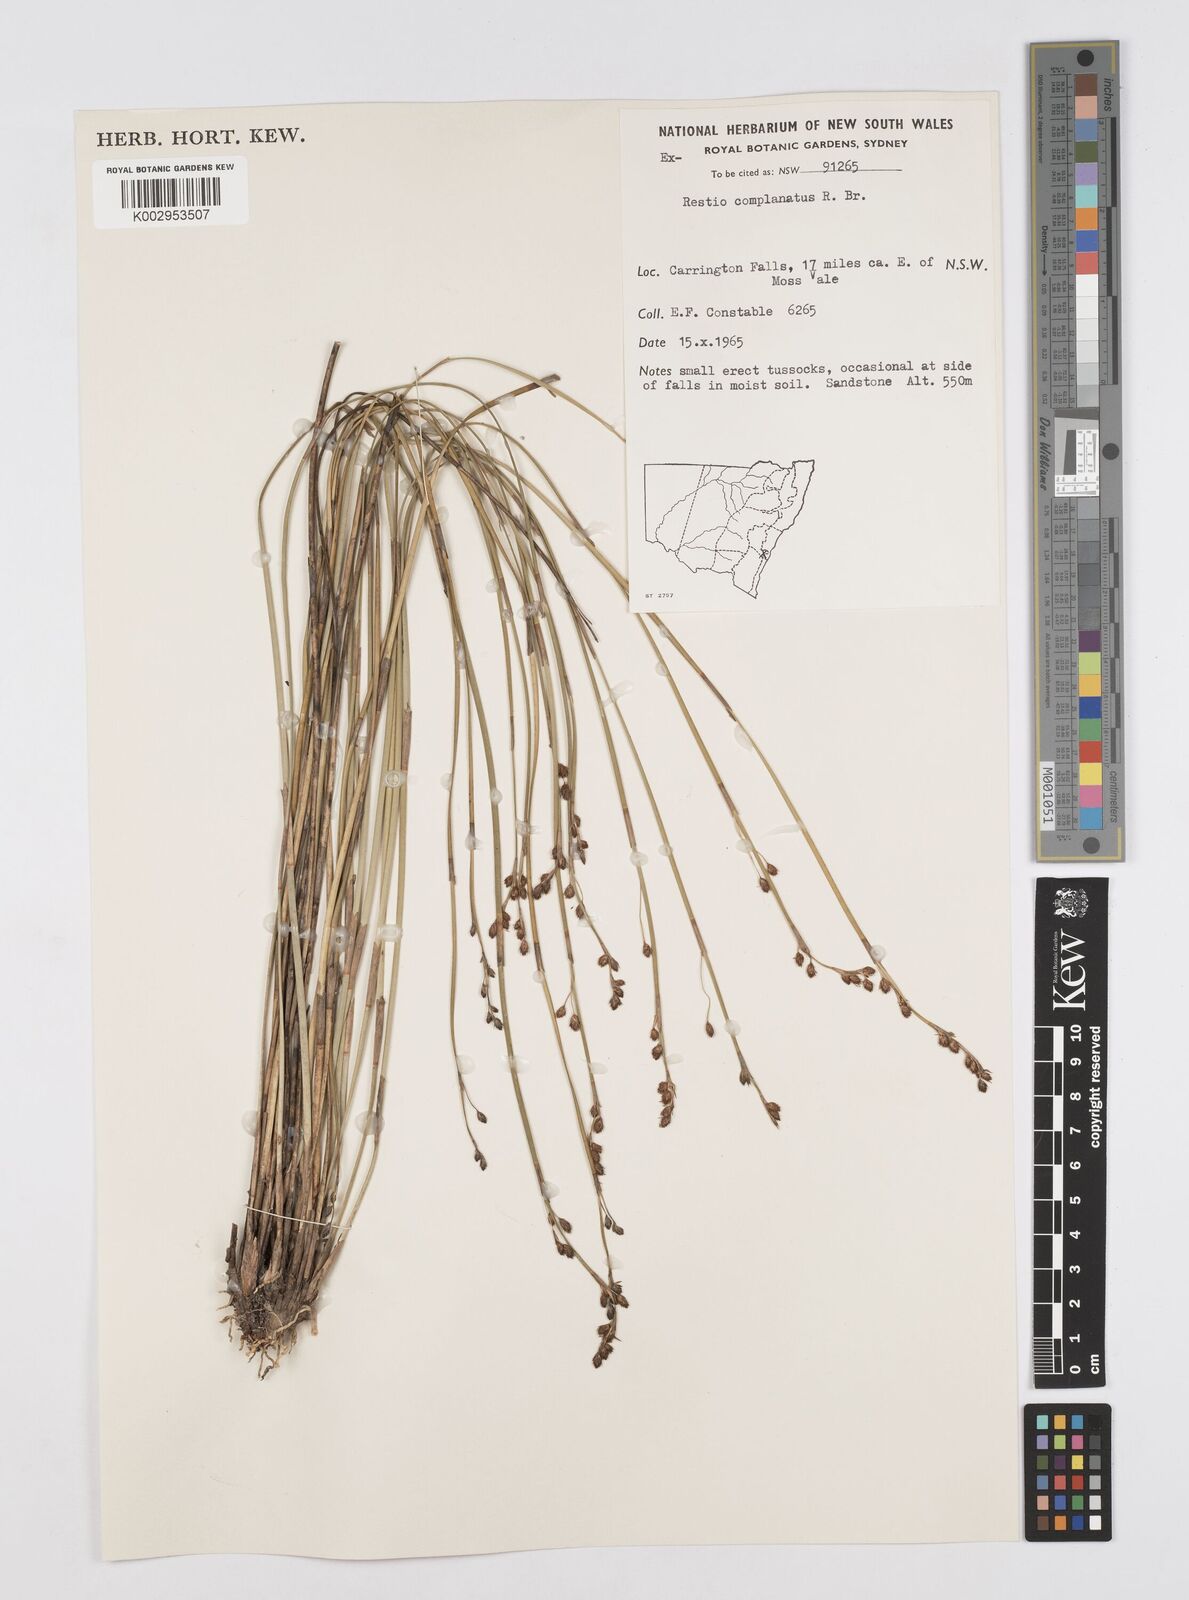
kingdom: Plantae
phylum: Tracheophyta
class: Liliopsida
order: Poales
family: Restionaceae
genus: Eurychorda
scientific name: Eurychorda complanata
